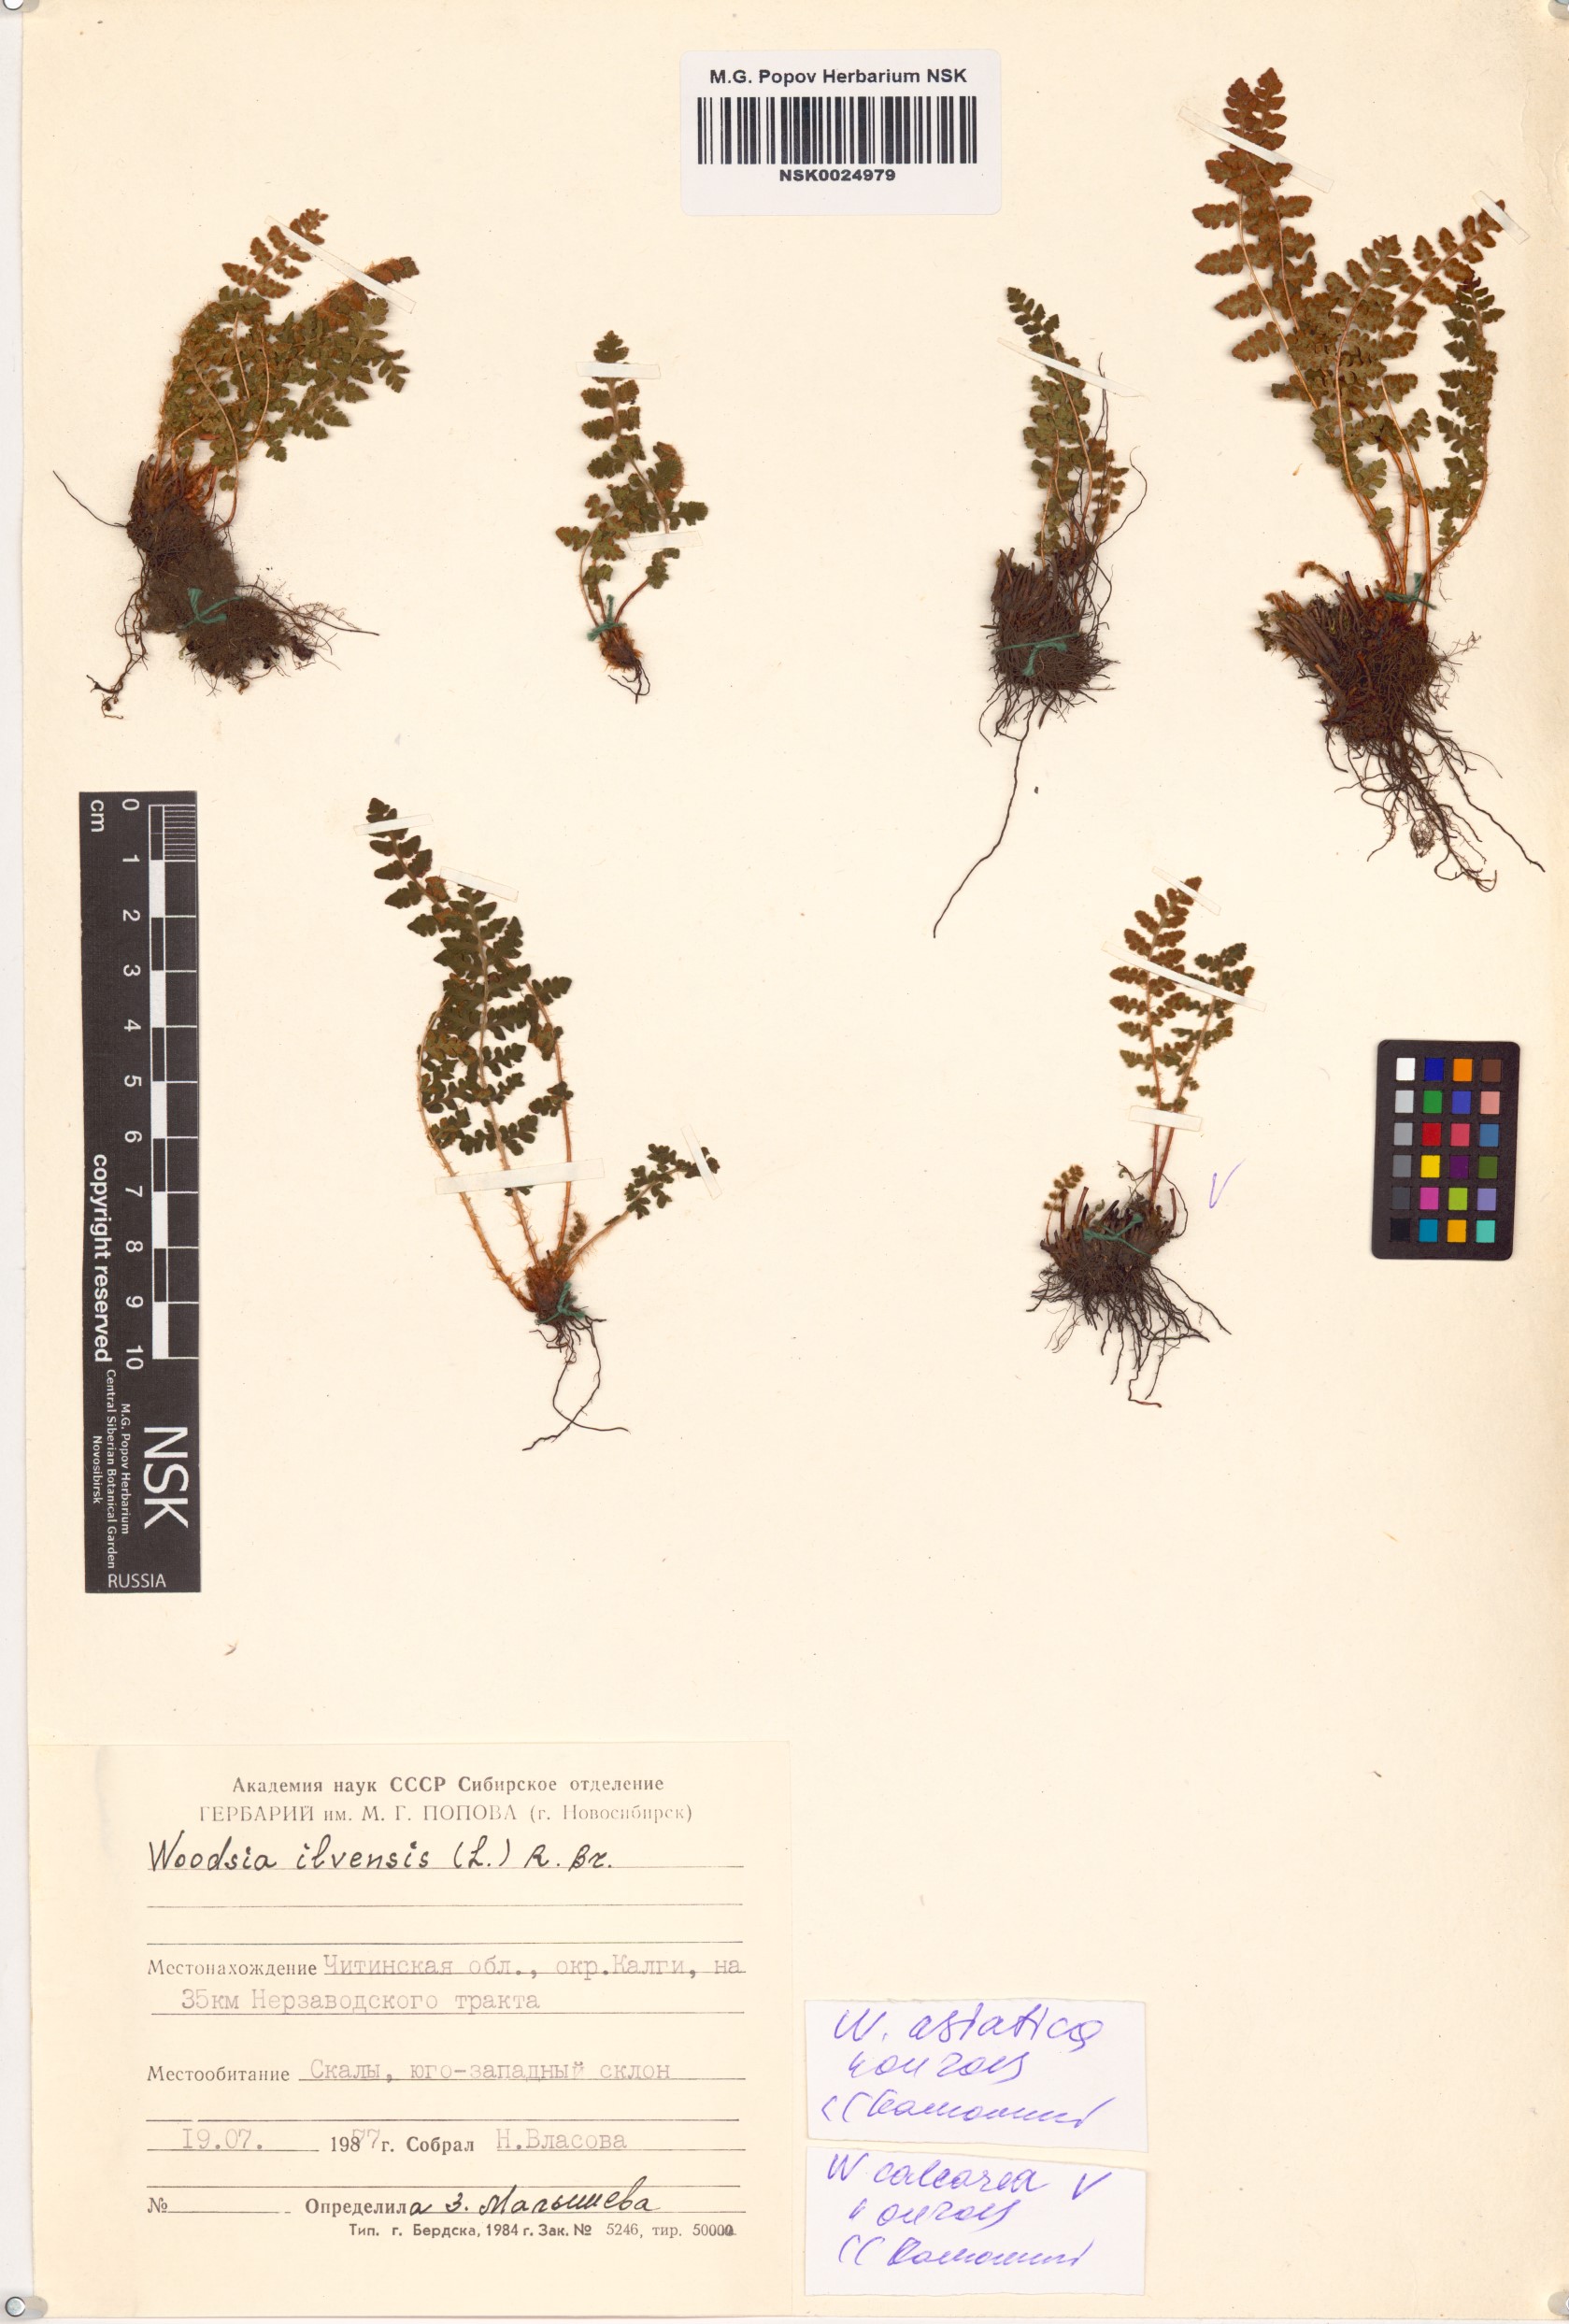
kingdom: Plantae
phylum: Tracheophyta
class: Polypodiopsida
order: Polypodiales
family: Woodsiaceae
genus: Woodsia
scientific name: Woodsia asiatica
